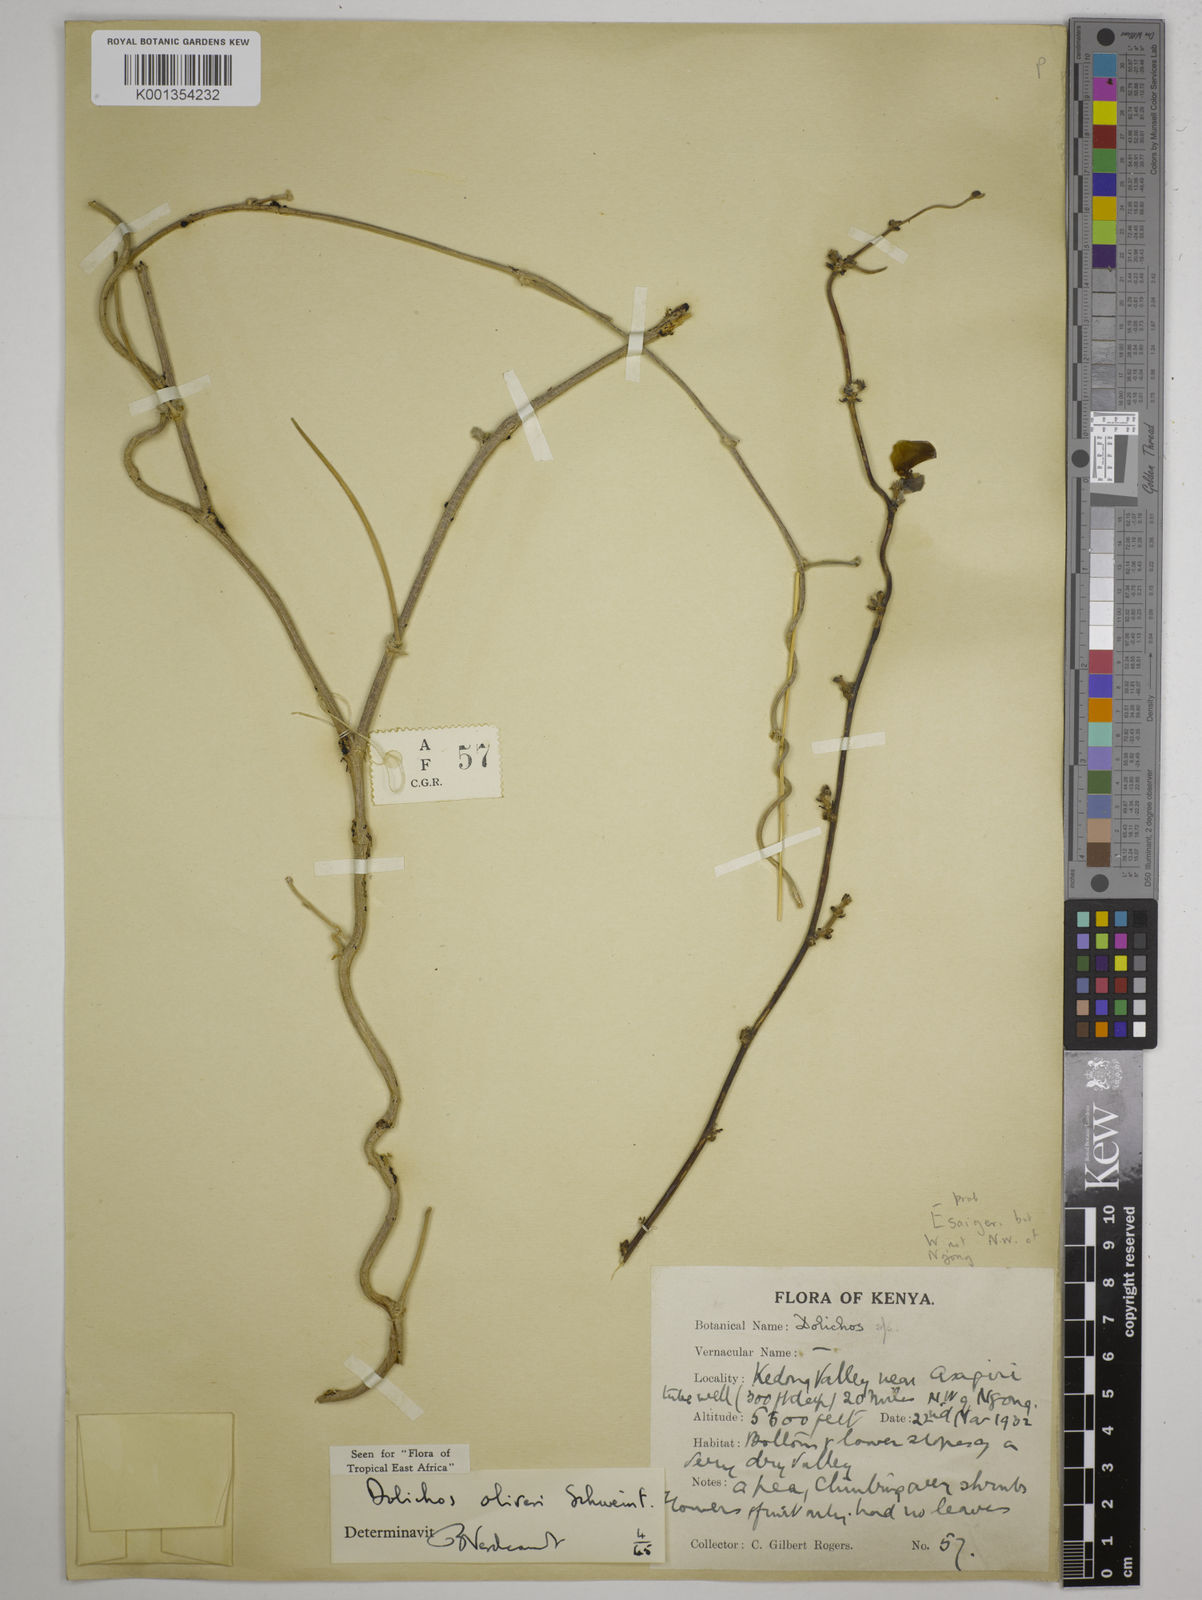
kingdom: Plantae
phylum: Tracheophyta
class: Magnoliopsida
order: Fabales
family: Fabaceae
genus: Dolichos
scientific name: Dolichos oliveri
